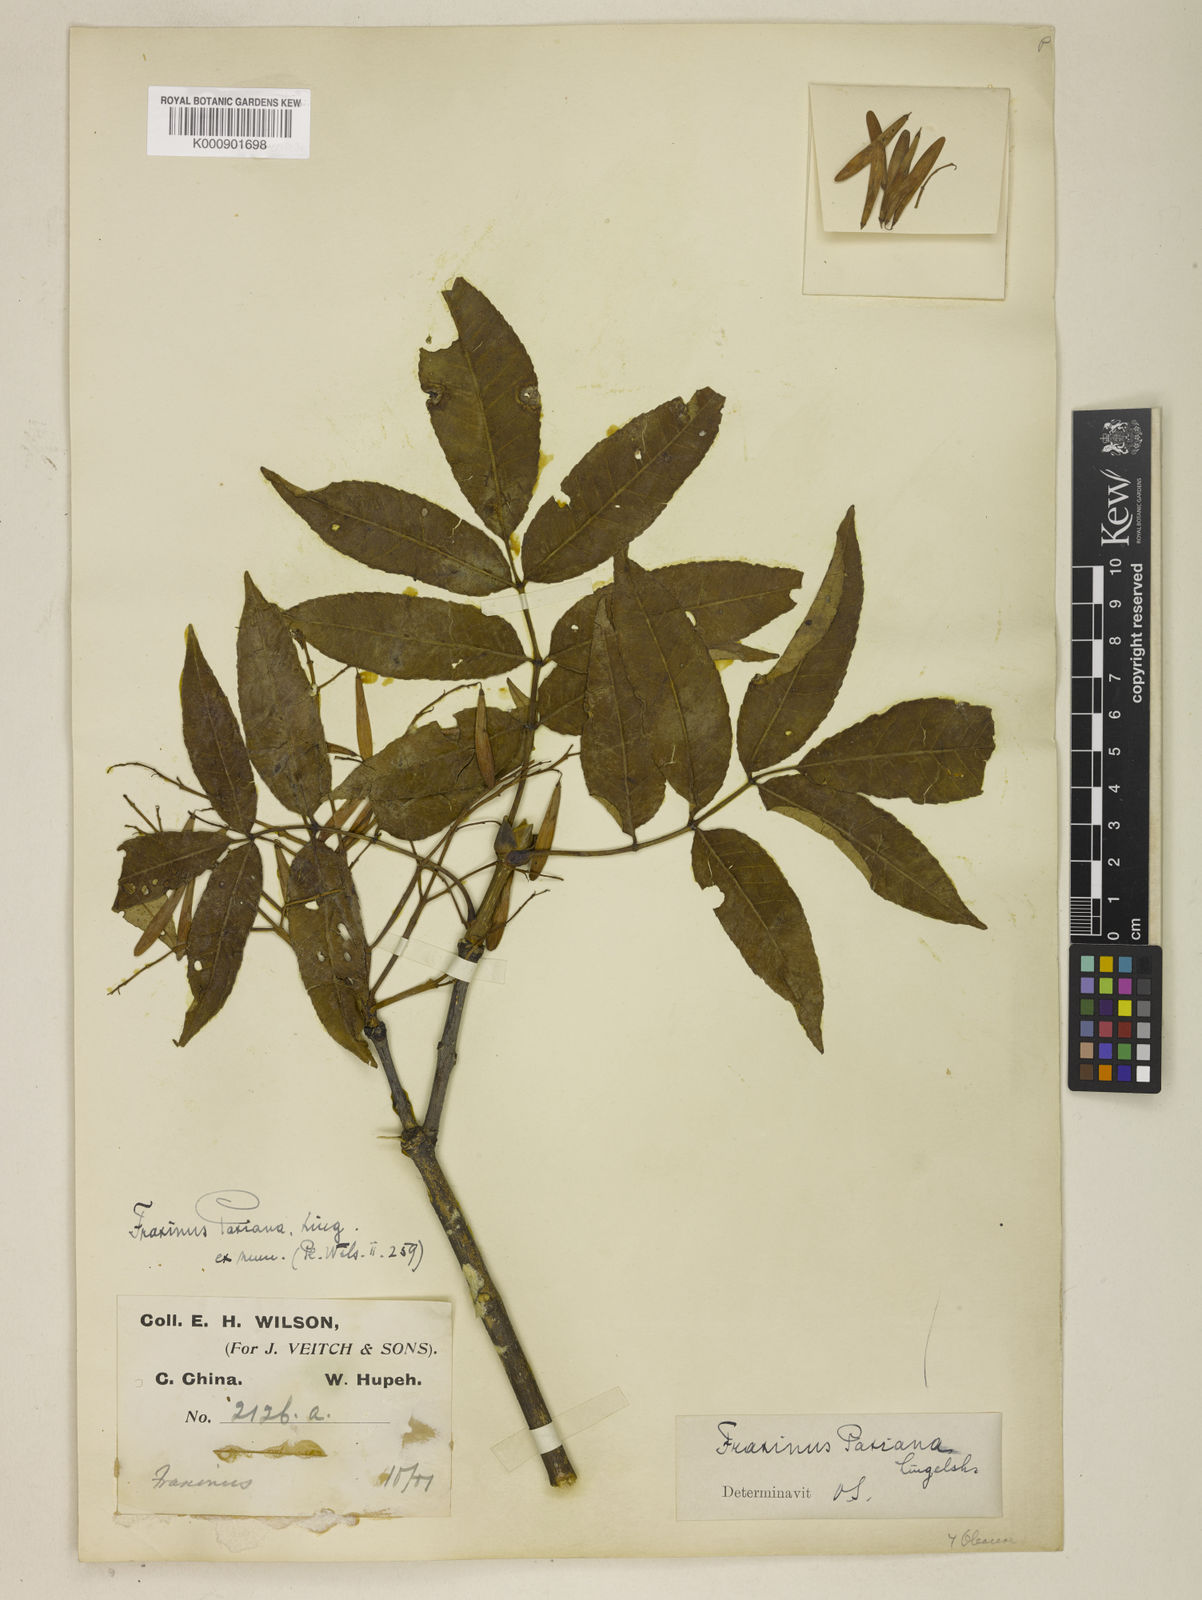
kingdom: Plantae
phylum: Tracheophyta
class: Magnoliopsida
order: Lamiales
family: Oleaceae
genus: Fraxinus
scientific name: Fraxinus paxiana
